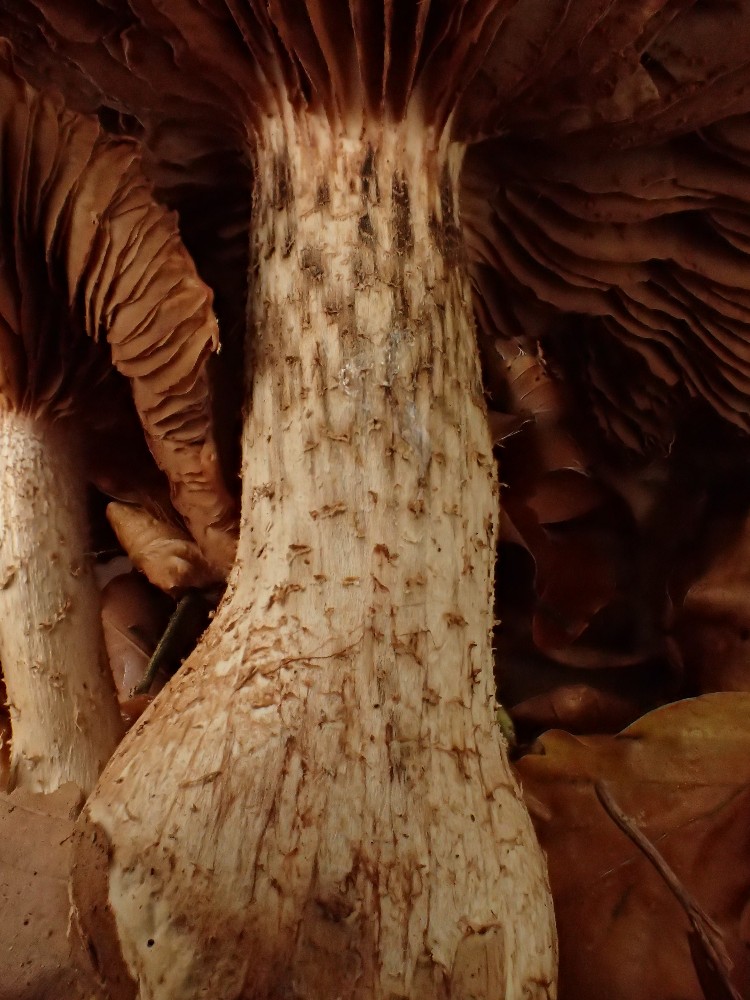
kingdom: Fungi
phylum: Basidiomycota
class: Agaricomycetes
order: Agaricales
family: Hymenogastraceae
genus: Hebeloma
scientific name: Hebeloma laterinum
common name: kakao-tåreblad
